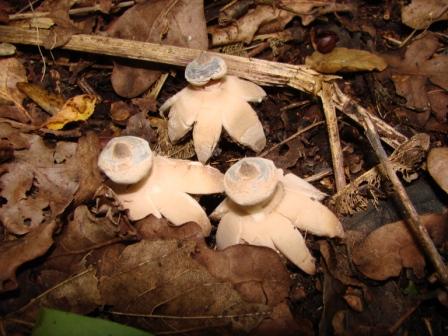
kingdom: Fungi
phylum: Basidiomycota
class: Agaricomycetes
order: Geastrales
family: Geastraceae
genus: Geastrum
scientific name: Geastrum striatum
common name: krave-stjernebold
